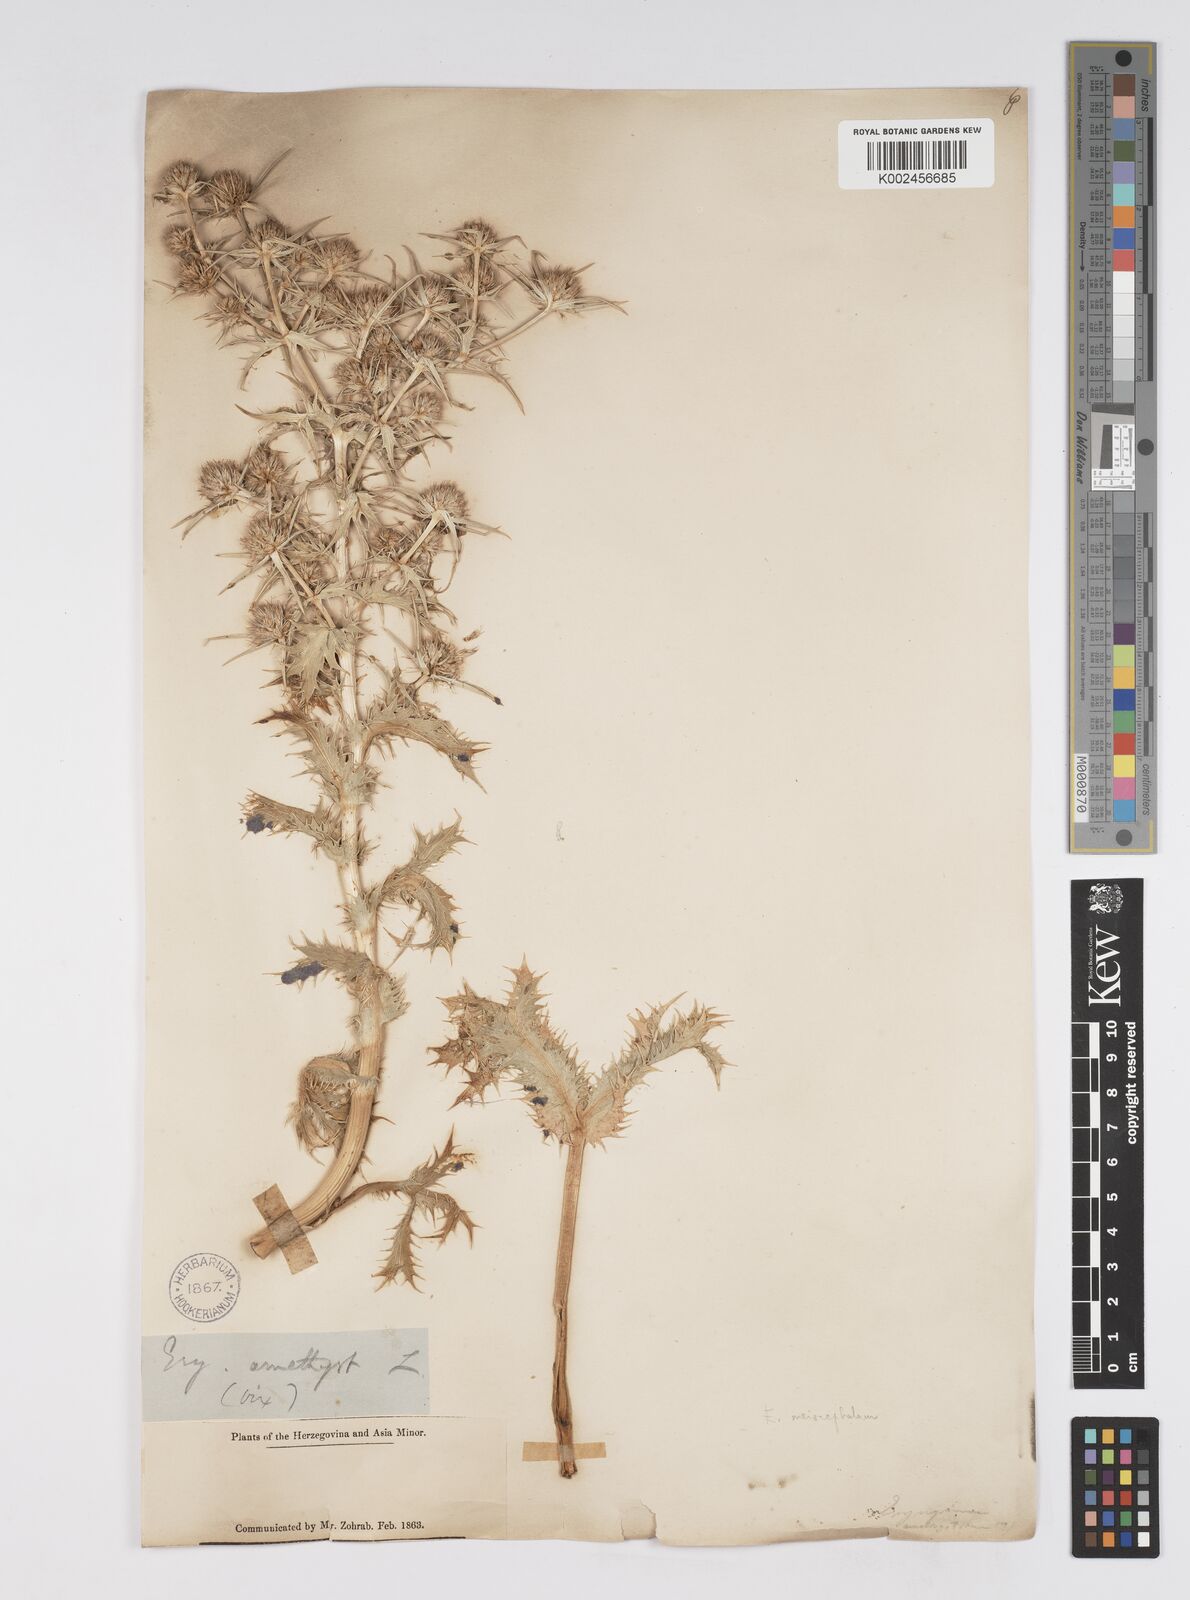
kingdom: Plantae
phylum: Tracheophyta
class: Magnoliopsida
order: Apiales
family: Apiaceae
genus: Eryngium
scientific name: Eryngium billardierei
